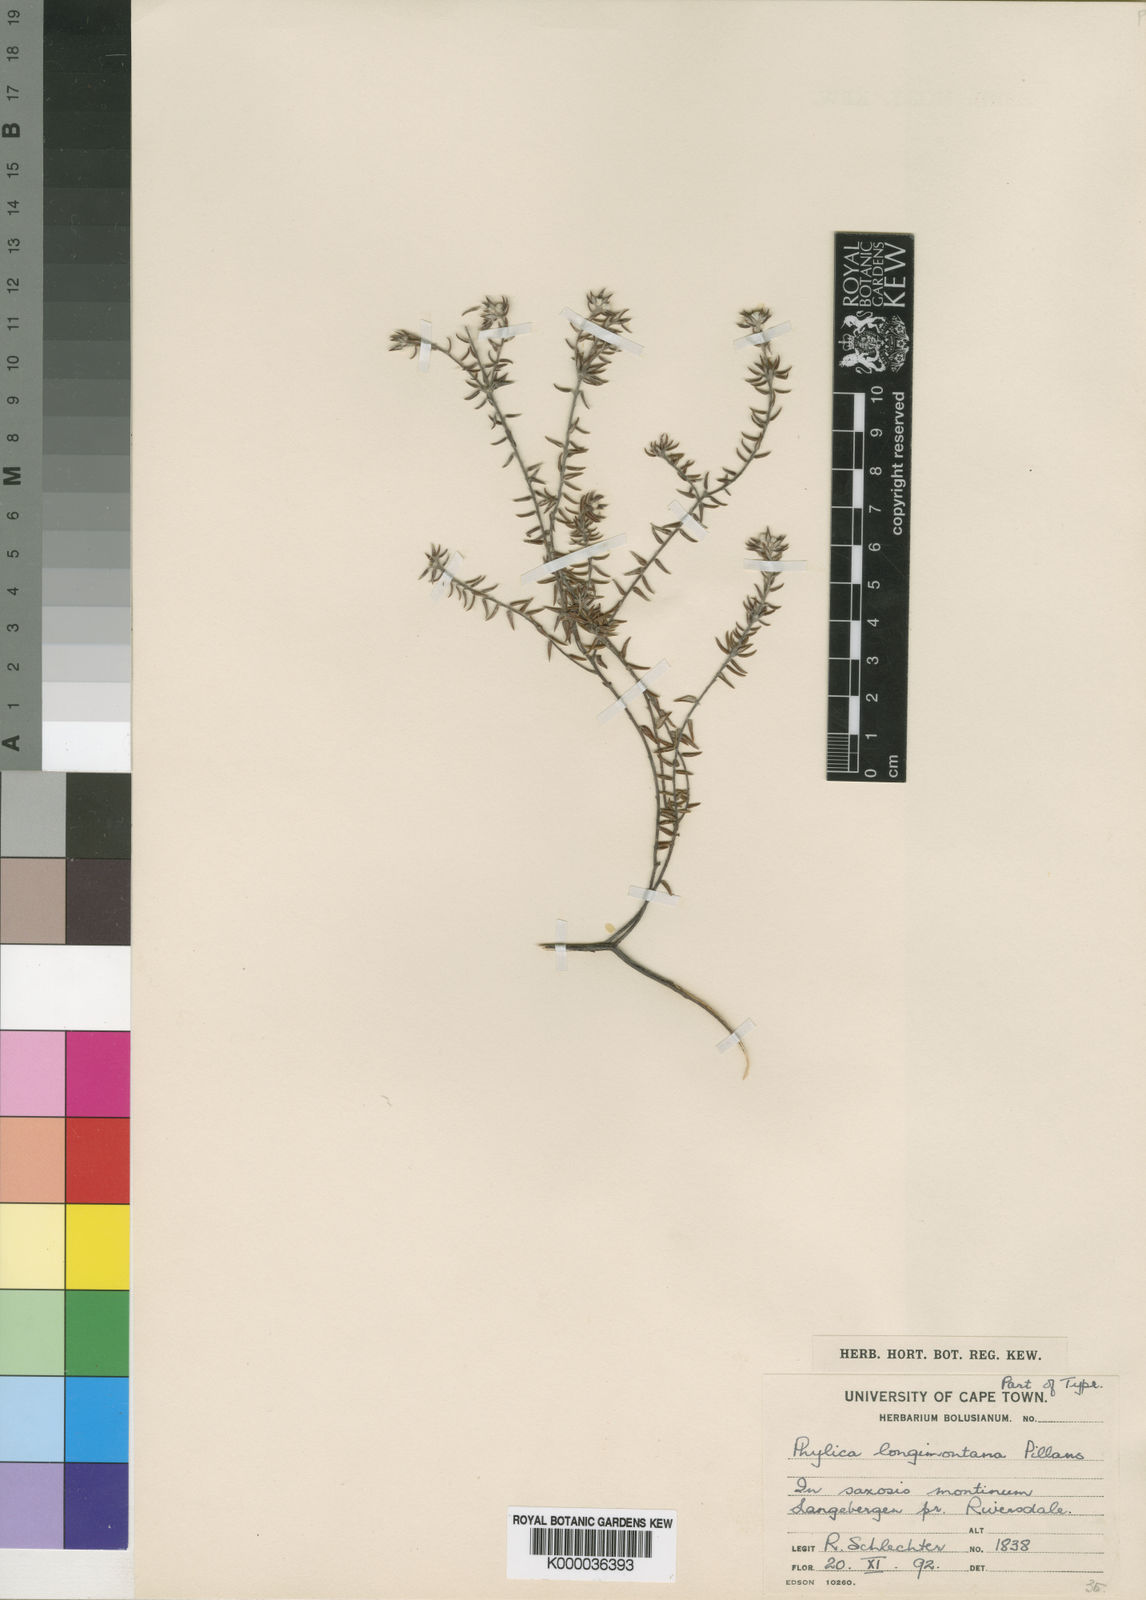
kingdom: Plantae
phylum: Tracheophyta
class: Magnoliopsida
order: Rosales
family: Rhamnaceae
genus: Phylica
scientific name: Phylica longimontana
